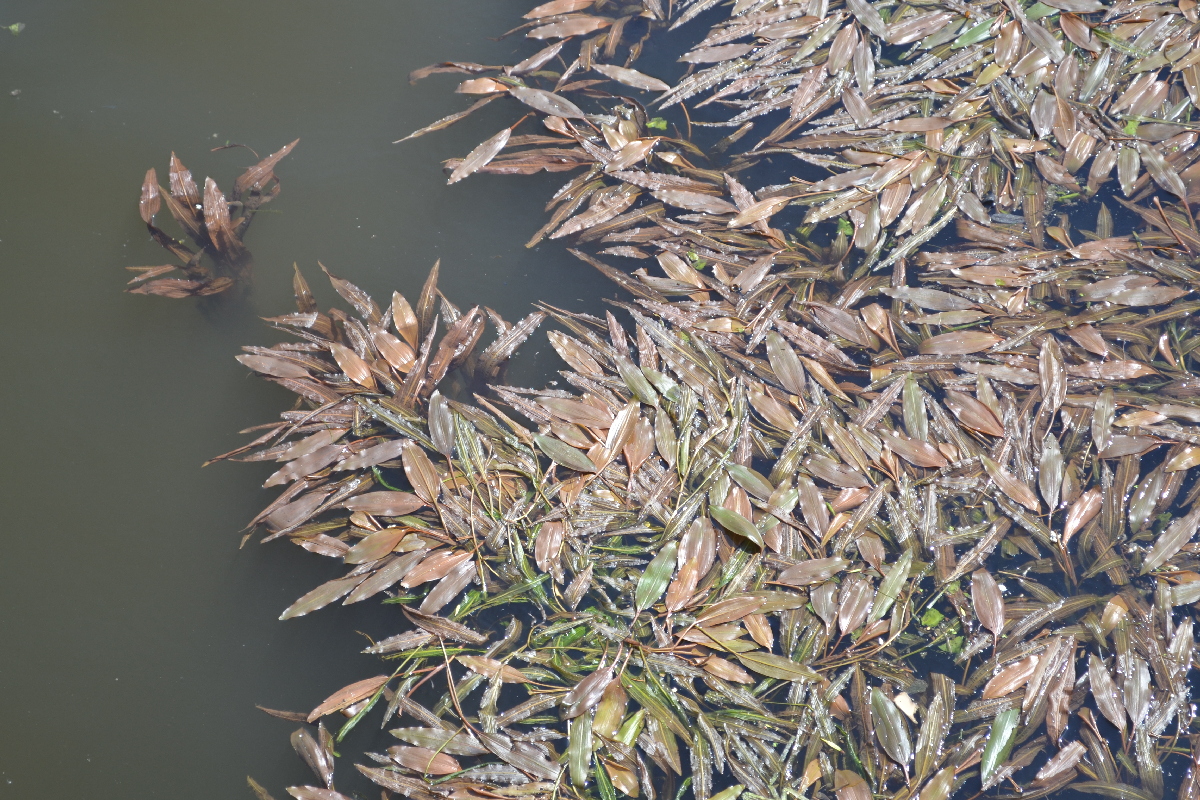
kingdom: Plantae
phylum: Tracheophyta
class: Liliopsida
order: Alismatales
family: Potamogetonaceae
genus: Potamogeton
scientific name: Potamogeton alpinus
